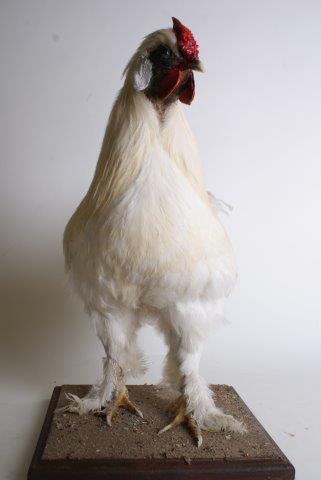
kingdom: Animalia
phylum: Chordata
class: Aves
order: Galliformes
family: Phasianidae
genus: Gallus
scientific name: Gallus gallus
